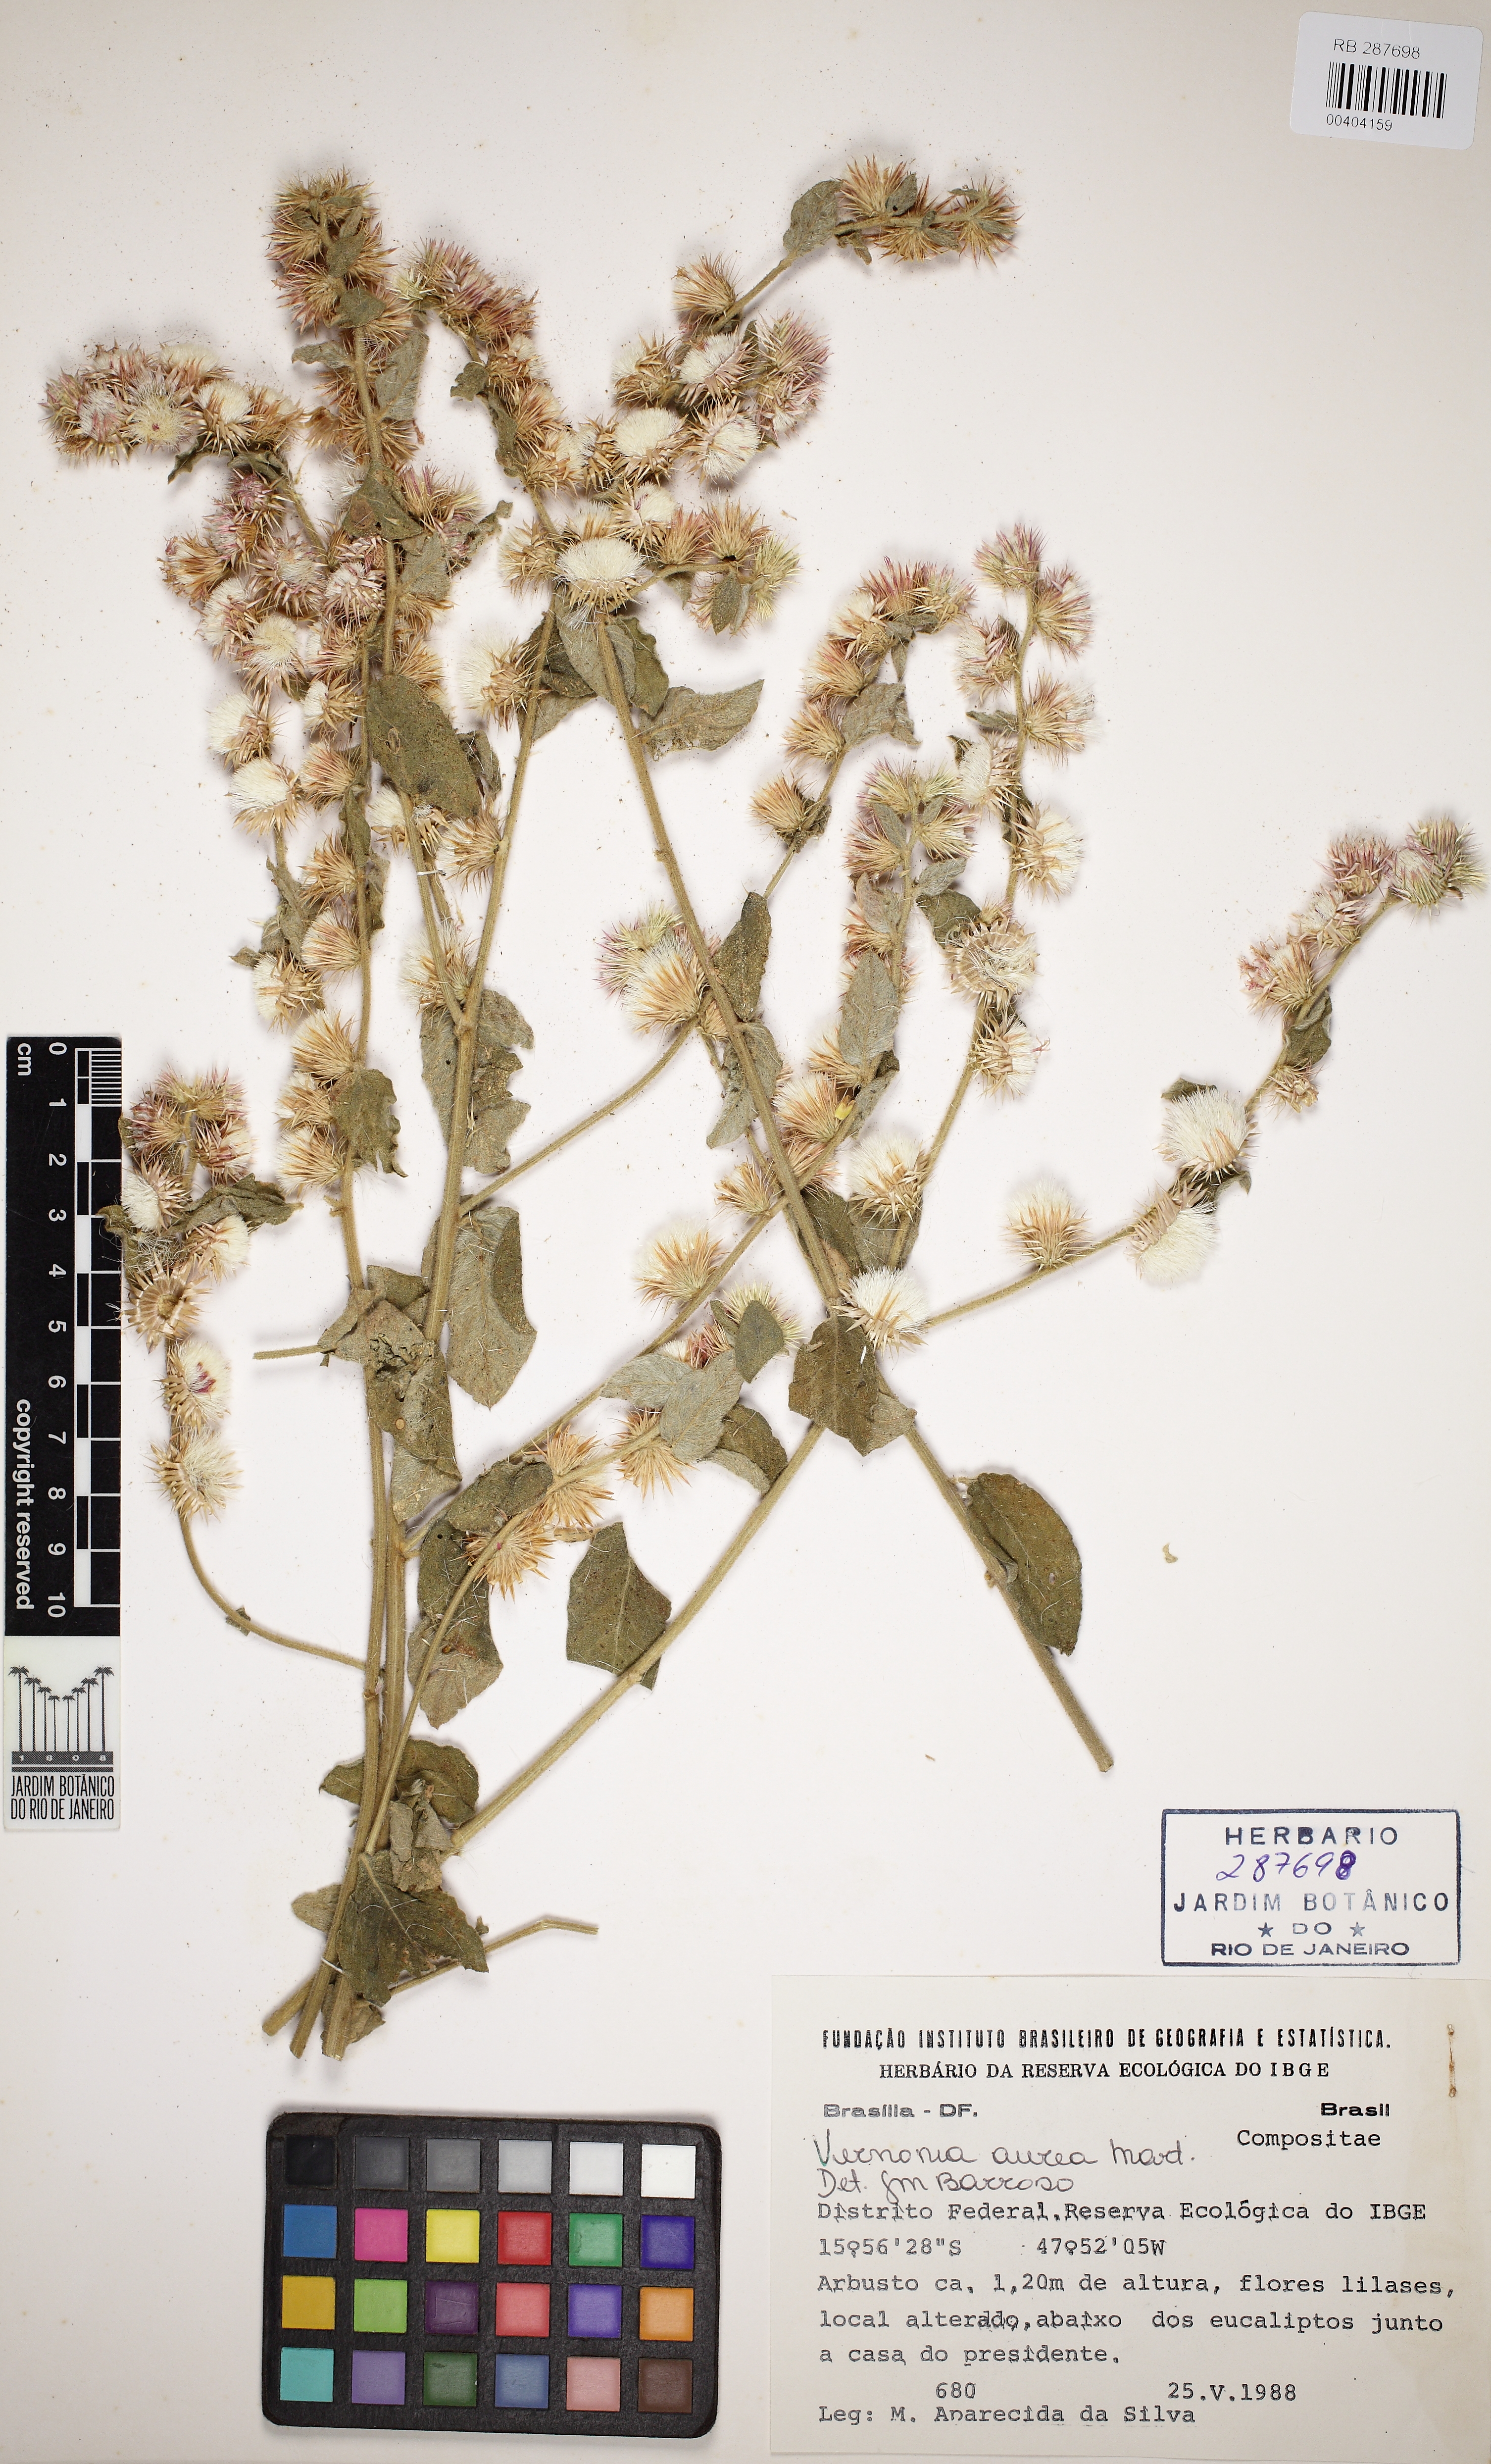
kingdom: Plantae
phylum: Tracheophyta
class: Magnoliopsida
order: Asterales
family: Asteraceae
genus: Lepidaploa
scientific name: Lepidaploa aurea
